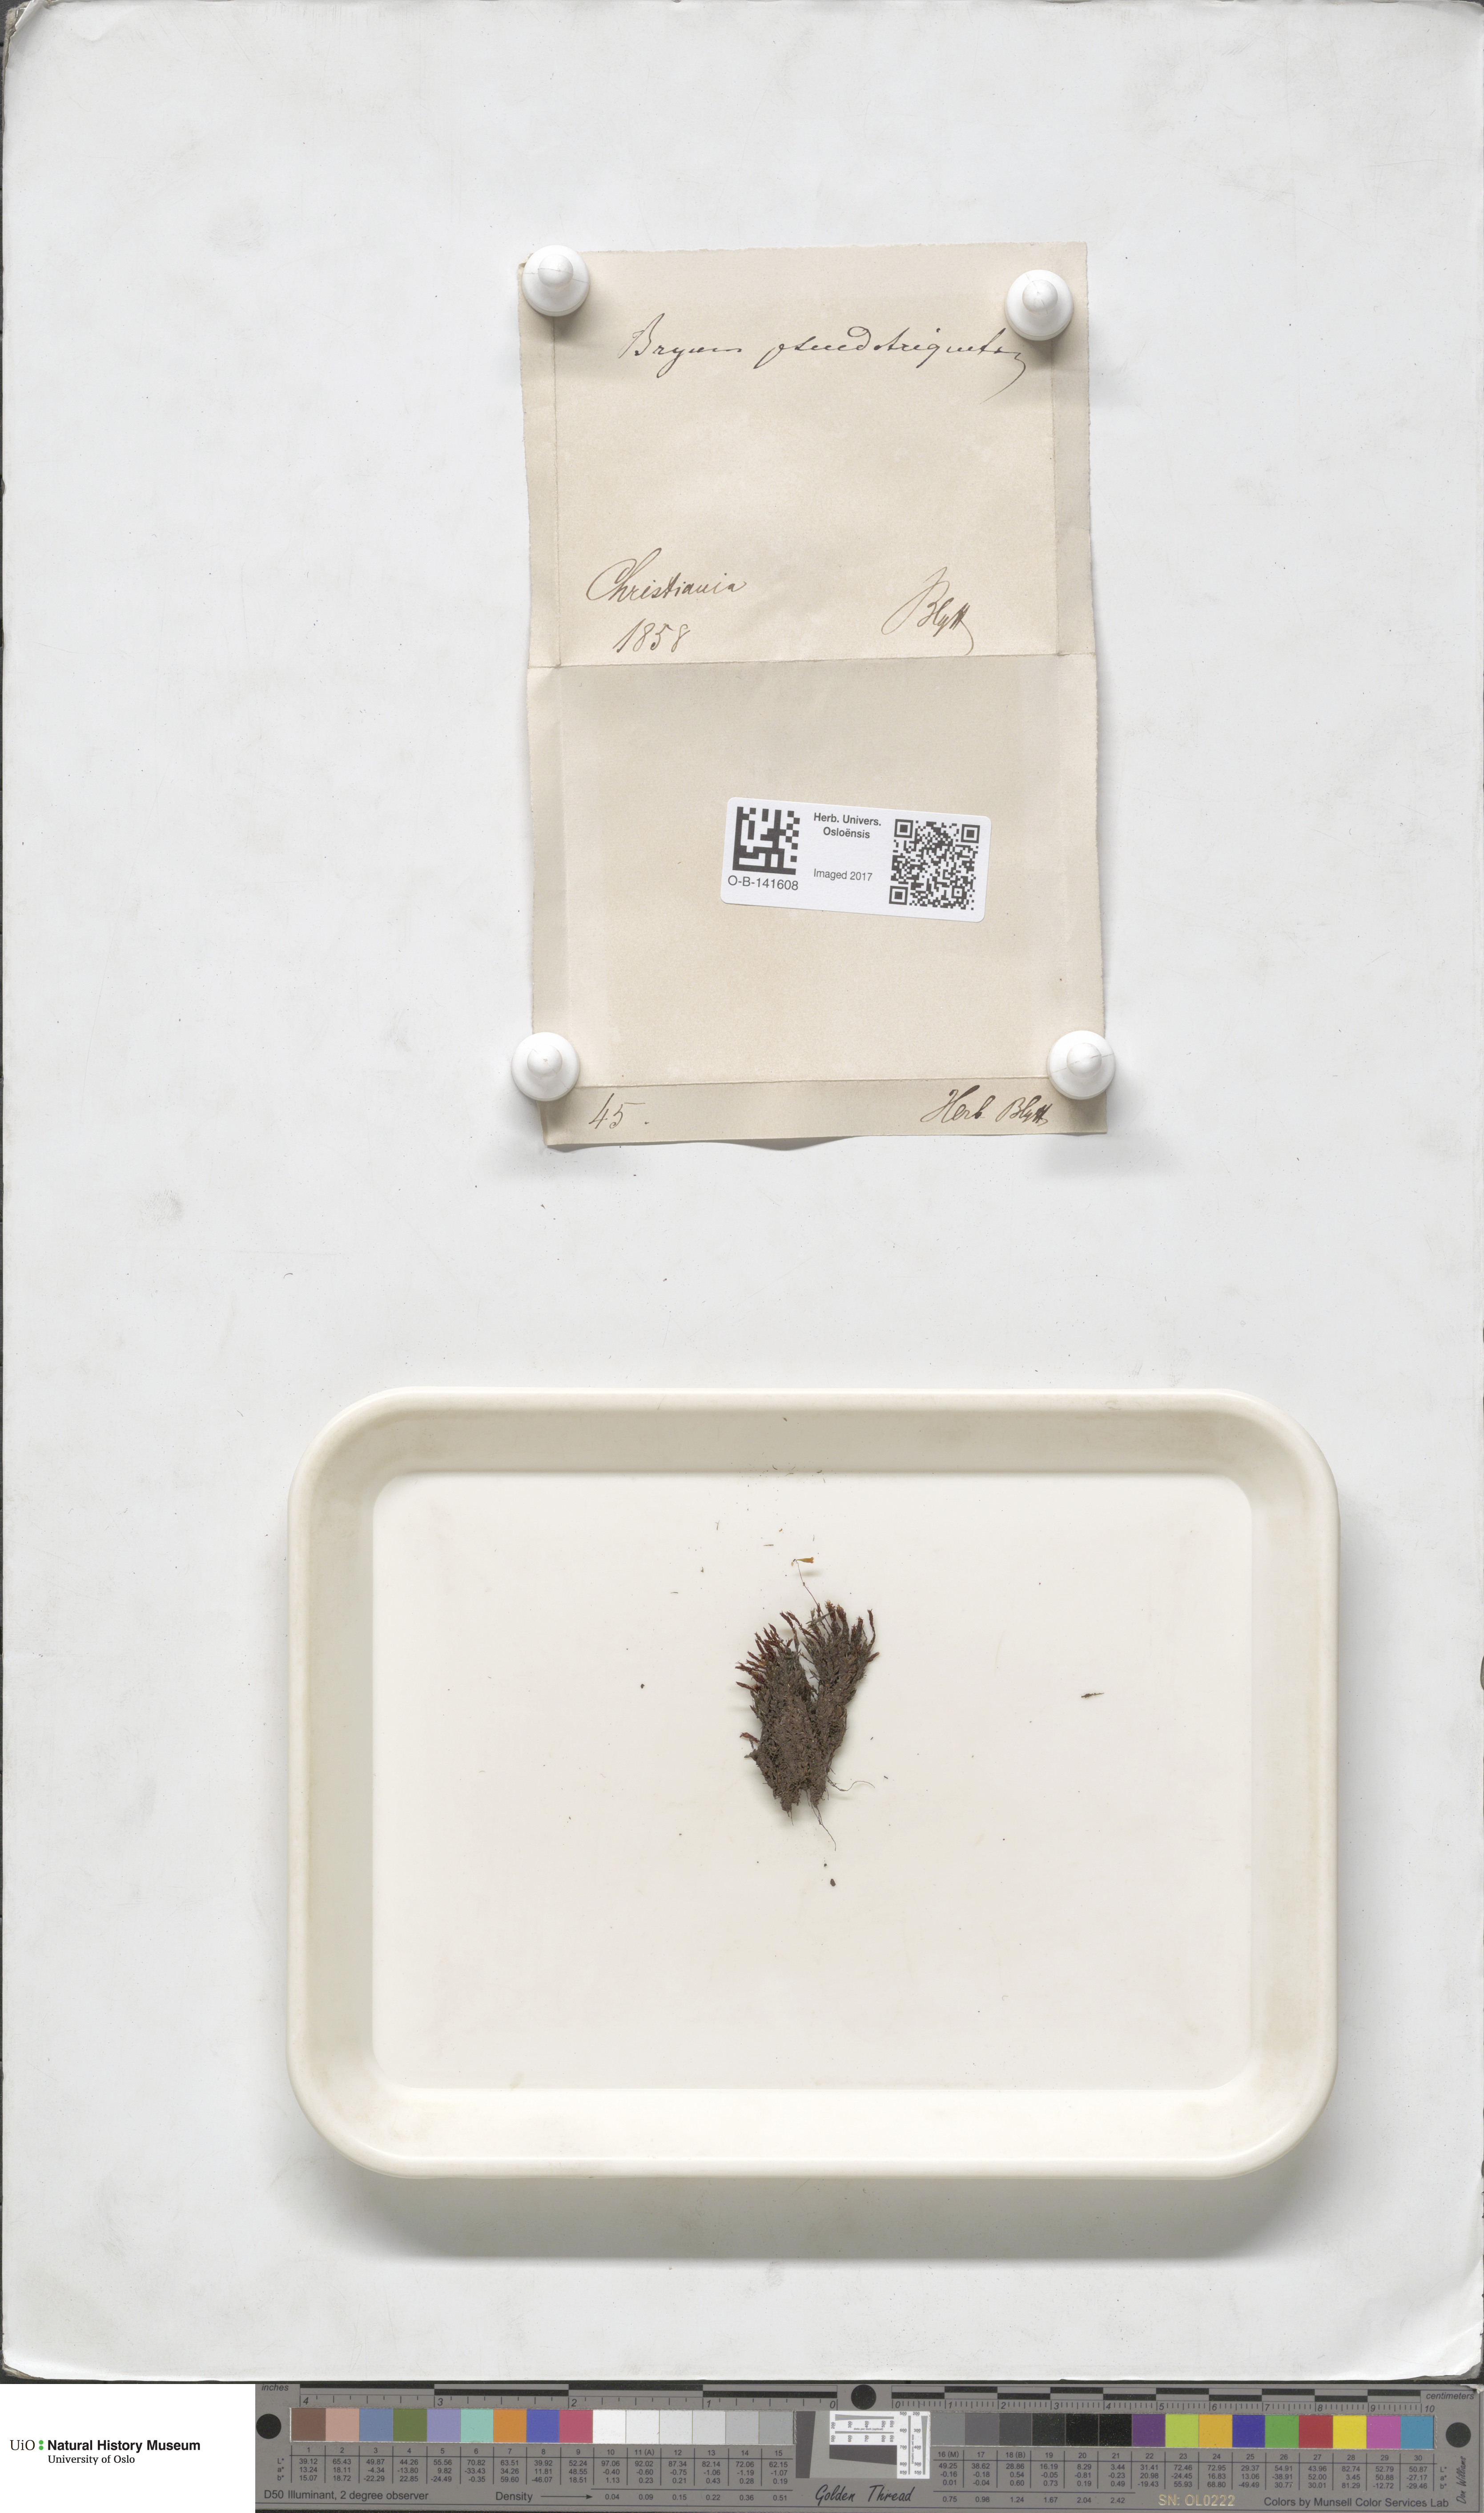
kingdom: Plantae
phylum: Bryophyta
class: Bryopsida
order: Bryales
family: Bryaceae
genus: Ptychostomum
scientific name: Ptychostomum pseudotriquetrum
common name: Long-leaved thread moss
